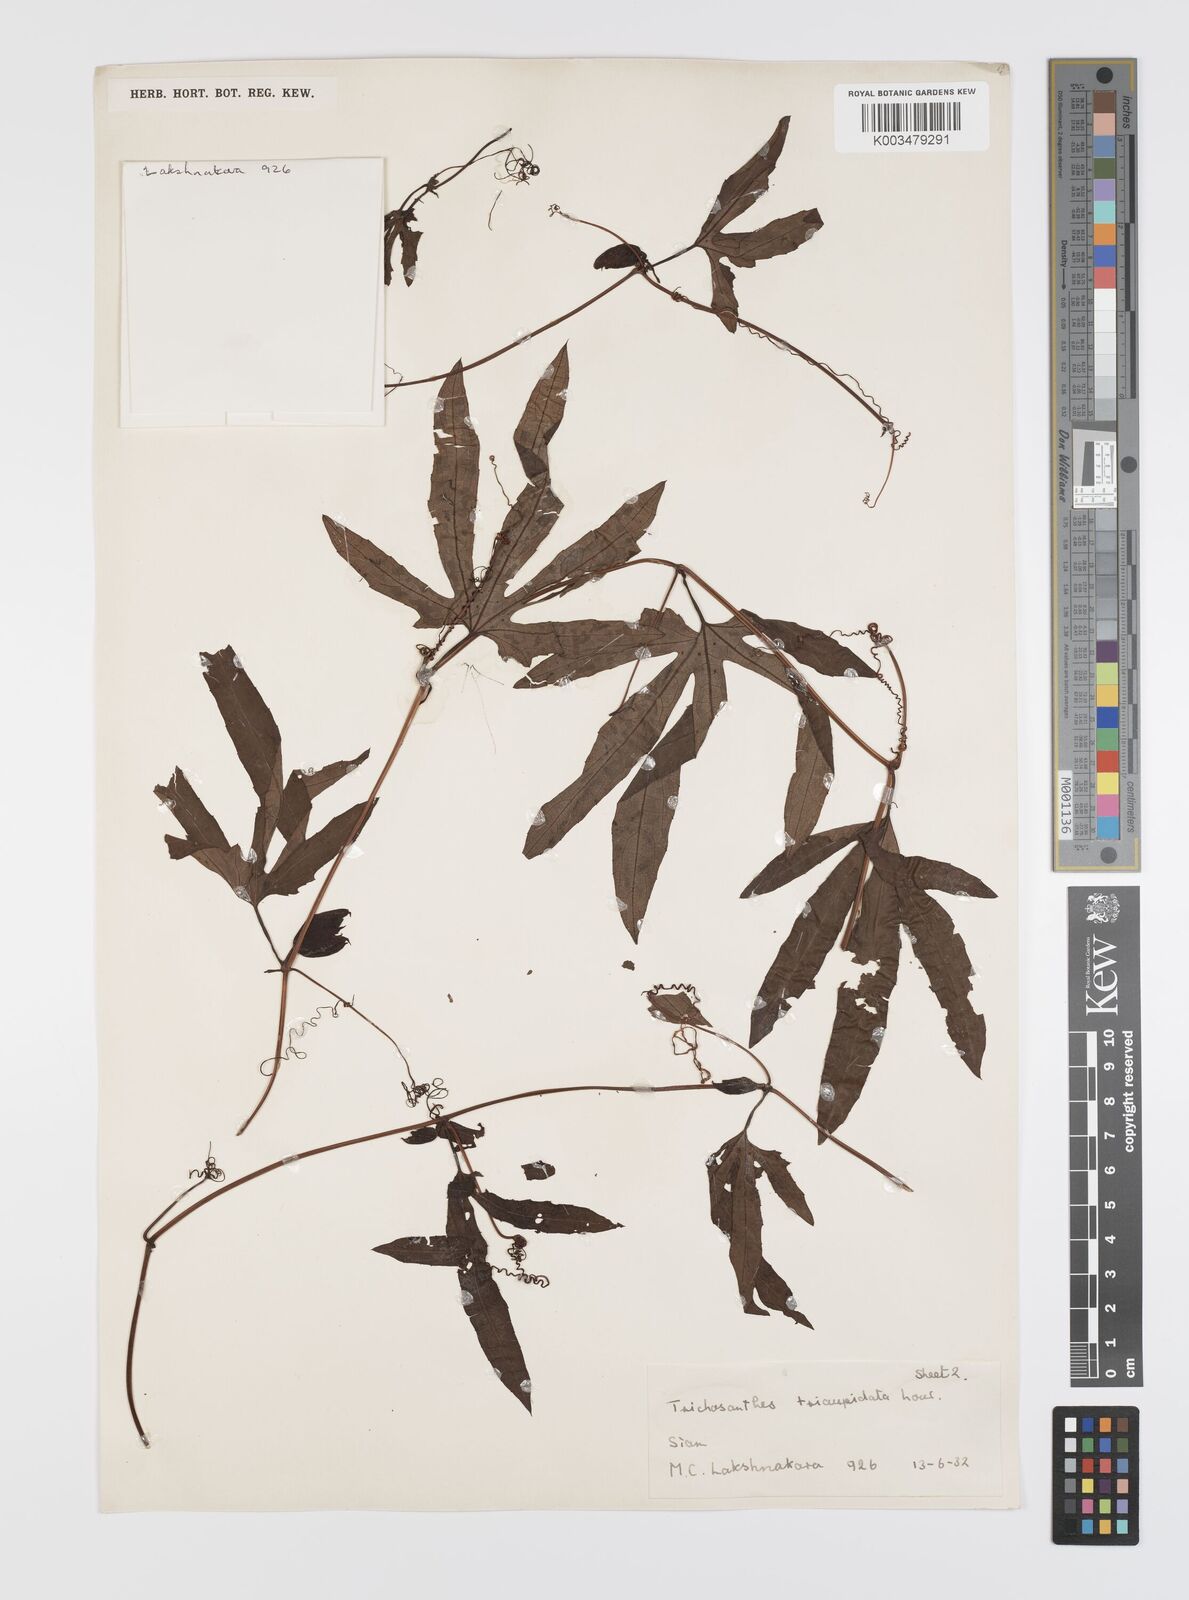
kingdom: Plantae
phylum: Tracheophyta
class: Magnoliopsida
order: Cucurbitales
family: Cucurbitaceae
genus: Trichosanthes
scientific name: Trichosanthes rubriflos
